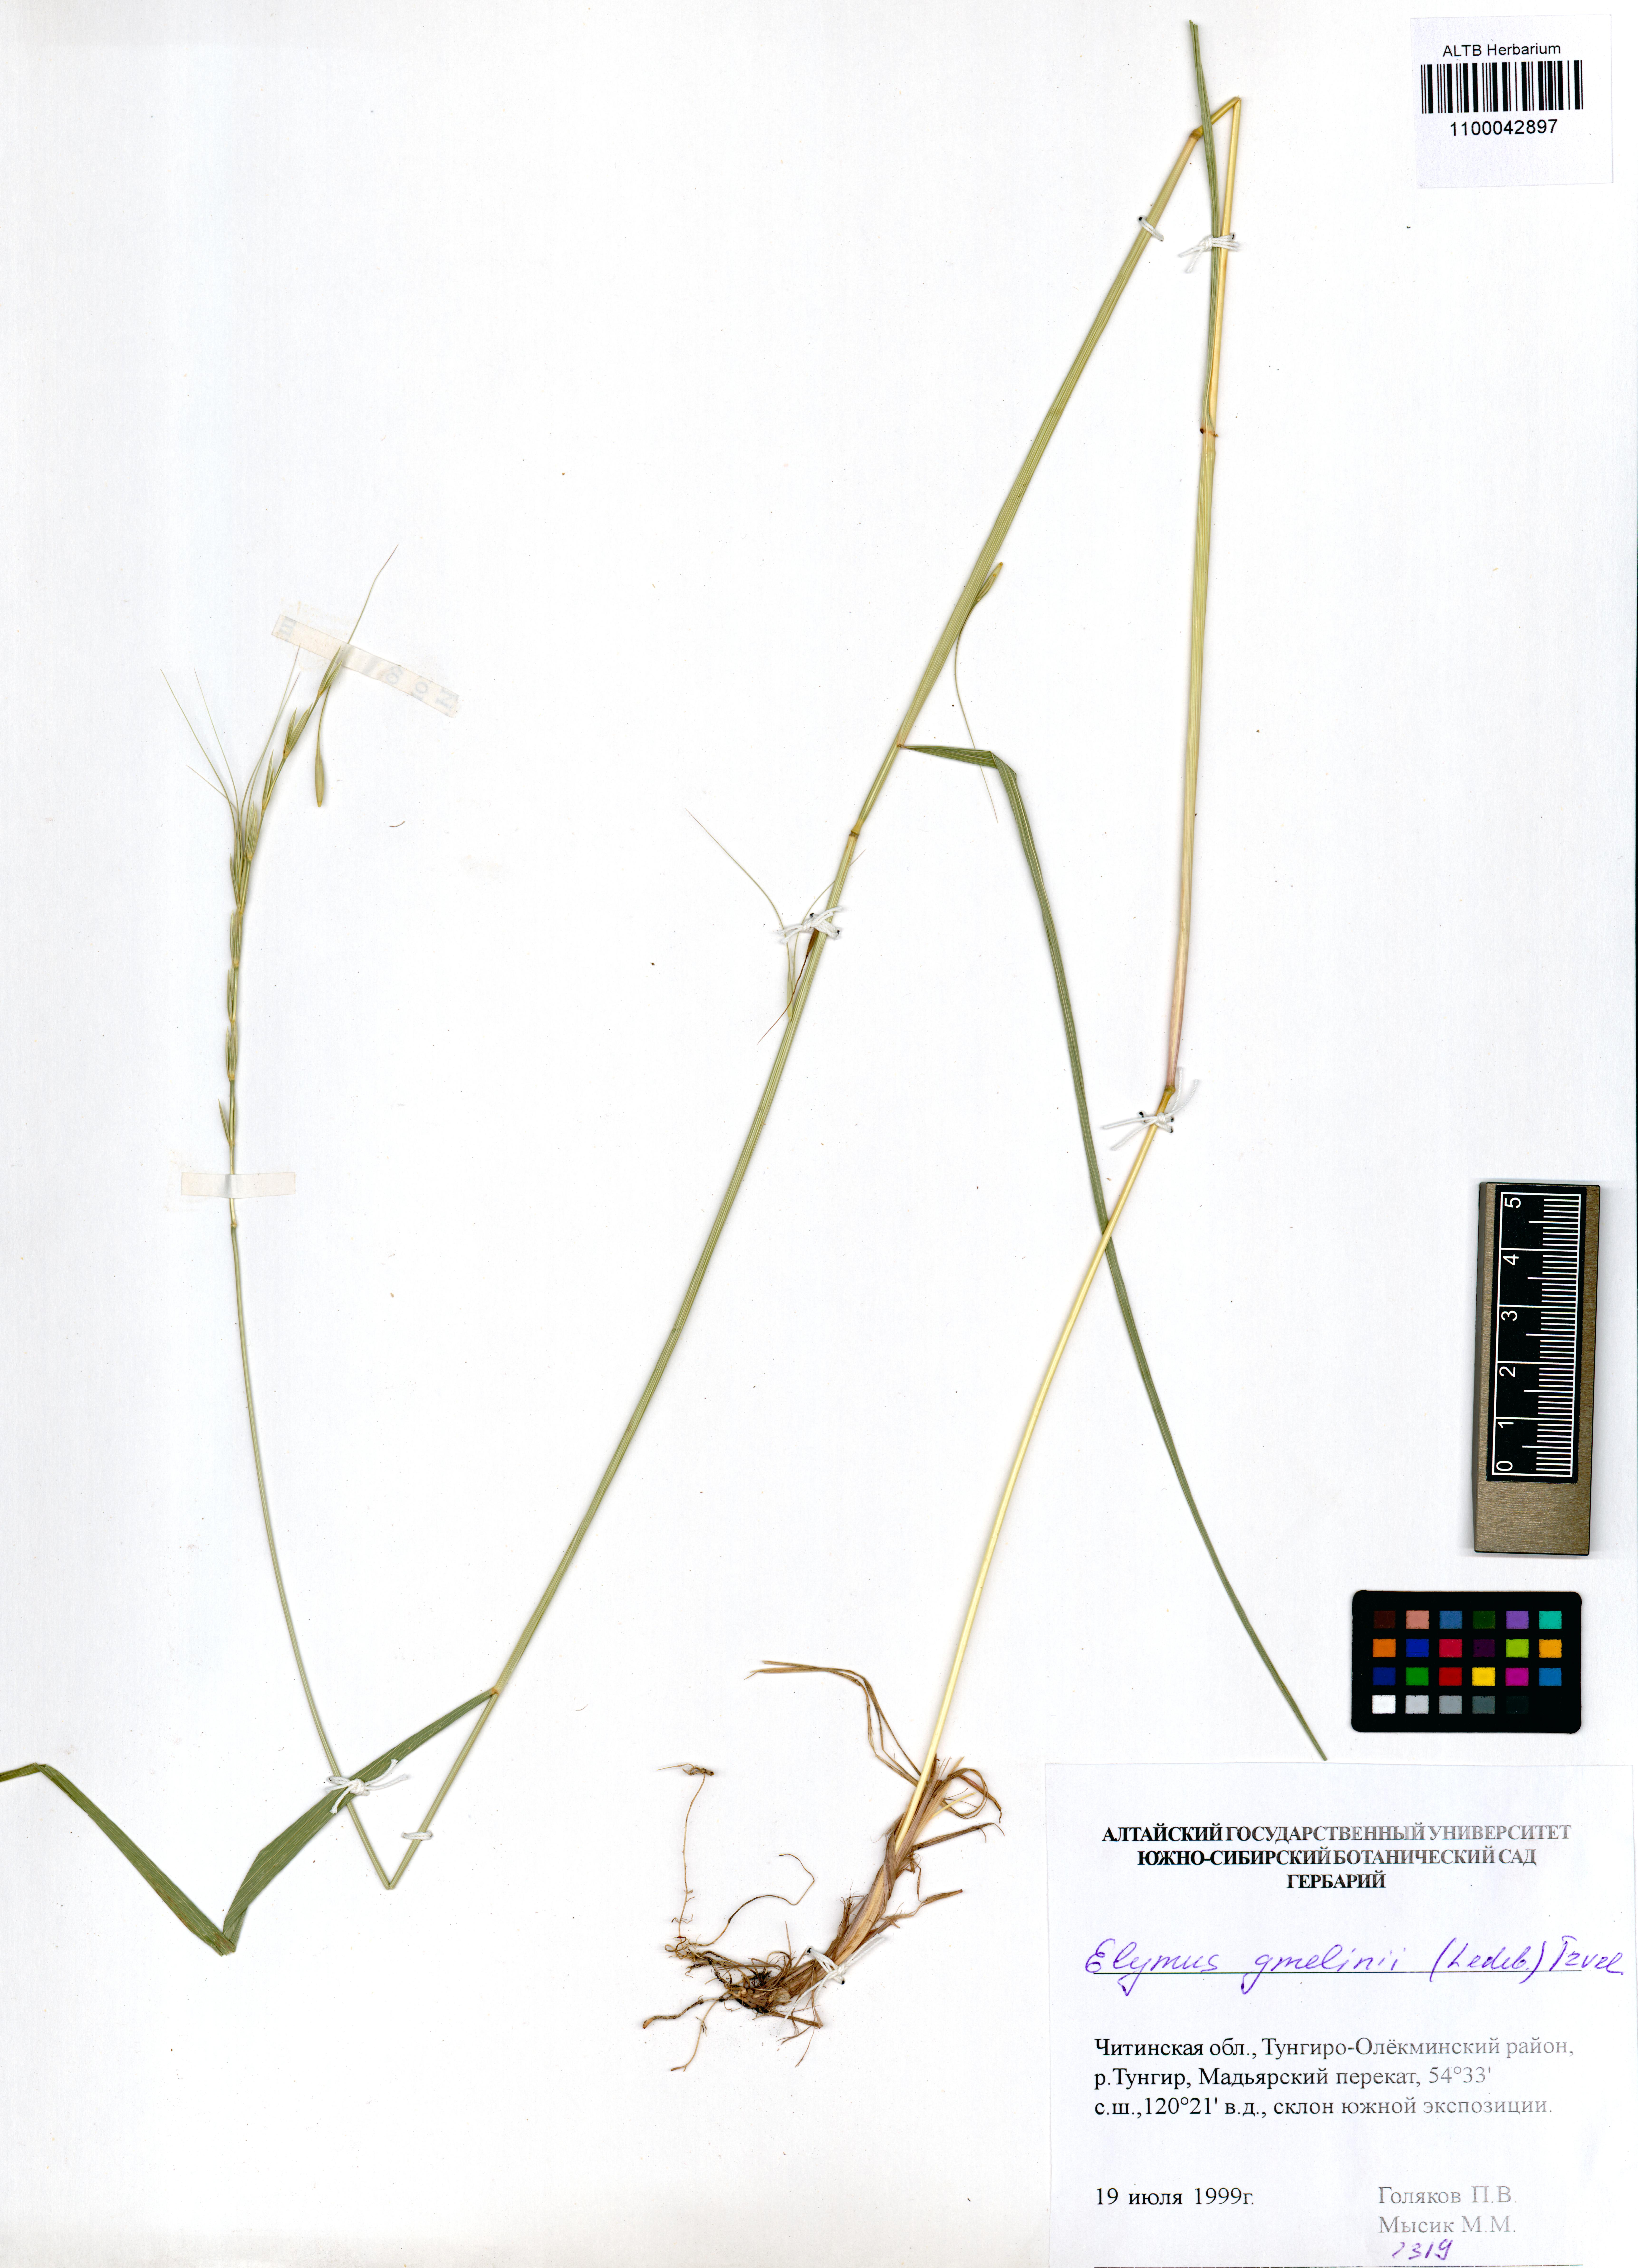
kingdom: Plantae
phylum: Tracheophyta
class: Liliopsida
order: Poales
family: Poaceae
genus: Elymus
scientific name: Elymus gmelinii
